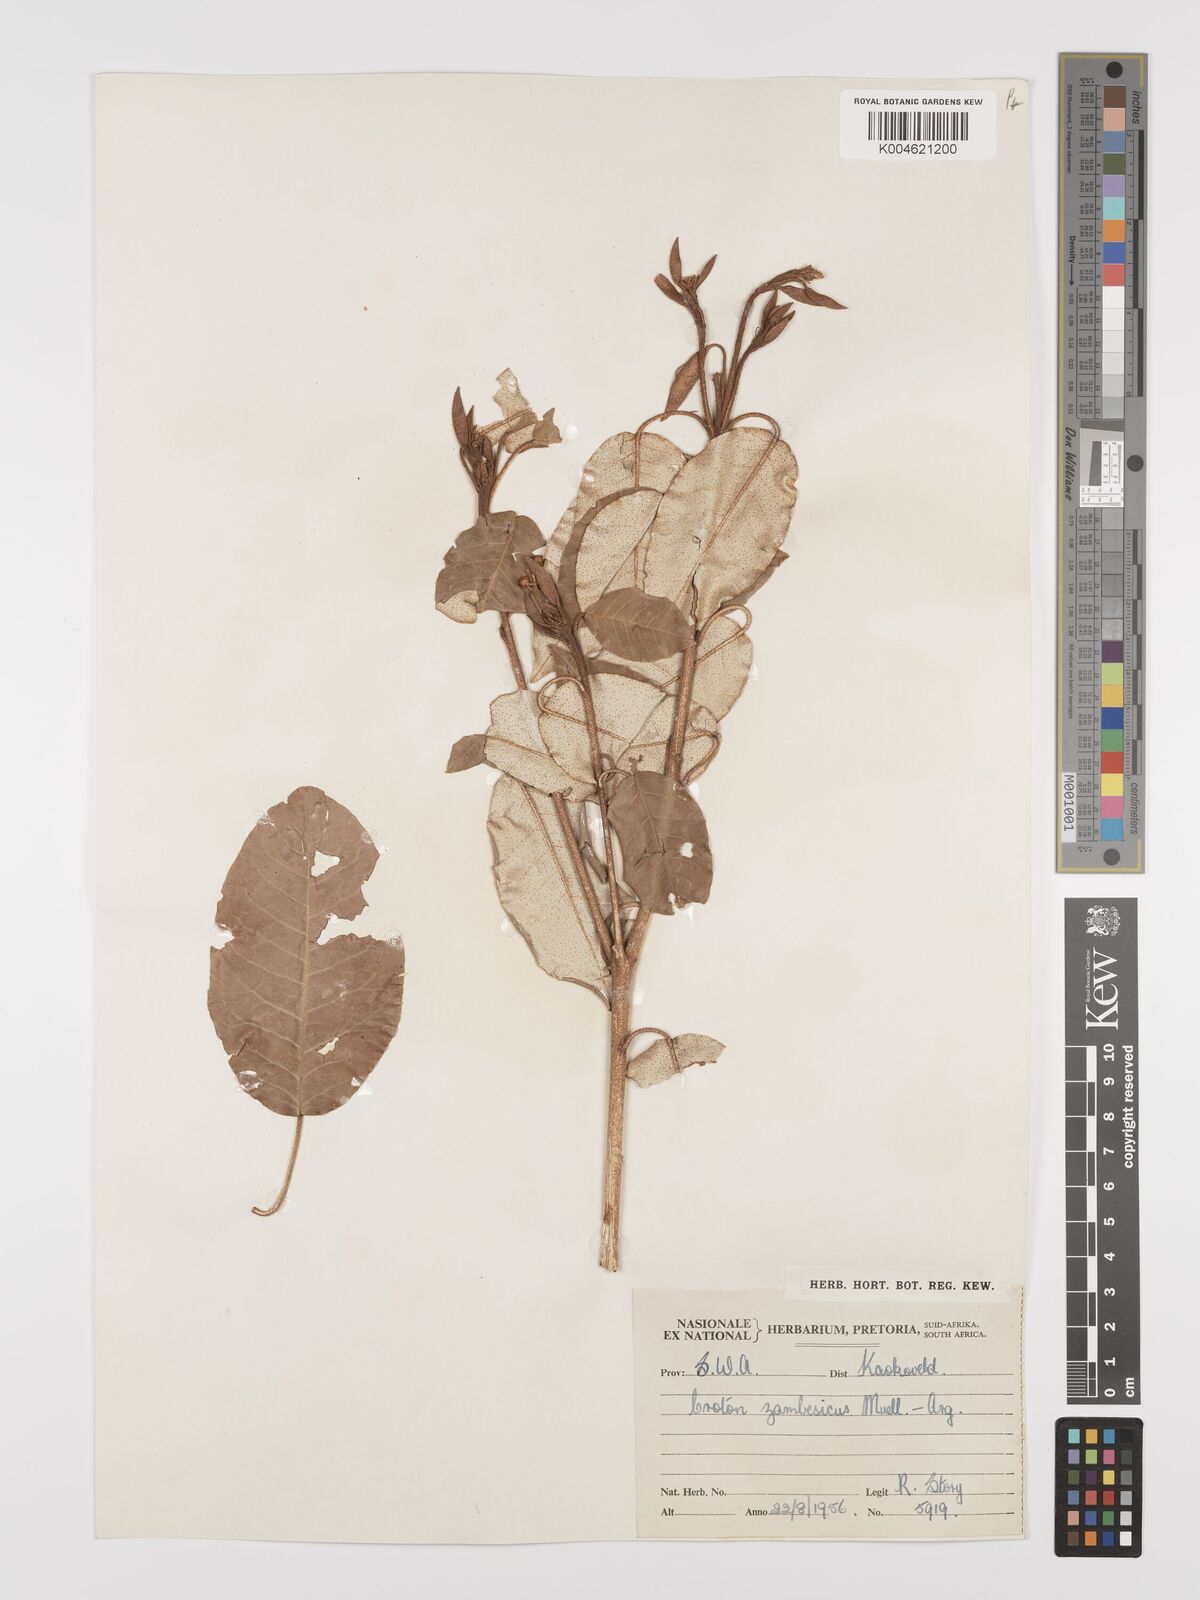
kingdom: Plantae
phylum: Tracheophyta
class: Magnoliopsida
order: Malpighiales
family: Euphorbiaceae
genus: Croton
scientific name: Croton gratissimus
